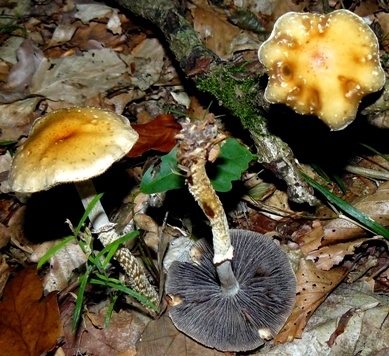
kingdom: Fungi
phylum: Basidiomycota
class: Agaricomycetes
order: Agaricales
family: Strophariaceae
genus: Leratiomyces
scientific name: Leratiomyces squamosus
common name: skællet bredblad
